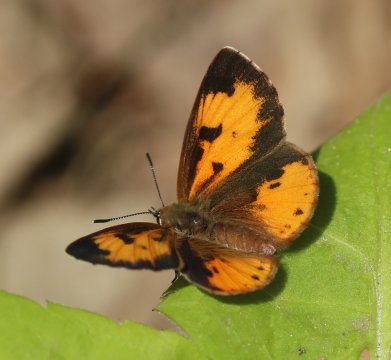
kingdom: Animalia
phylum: Arthropoda
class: Insecta
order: Lepidoptera
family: Lycaenidae
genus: Feniseca
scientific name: Feniseca tarquinius
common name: Harvester
